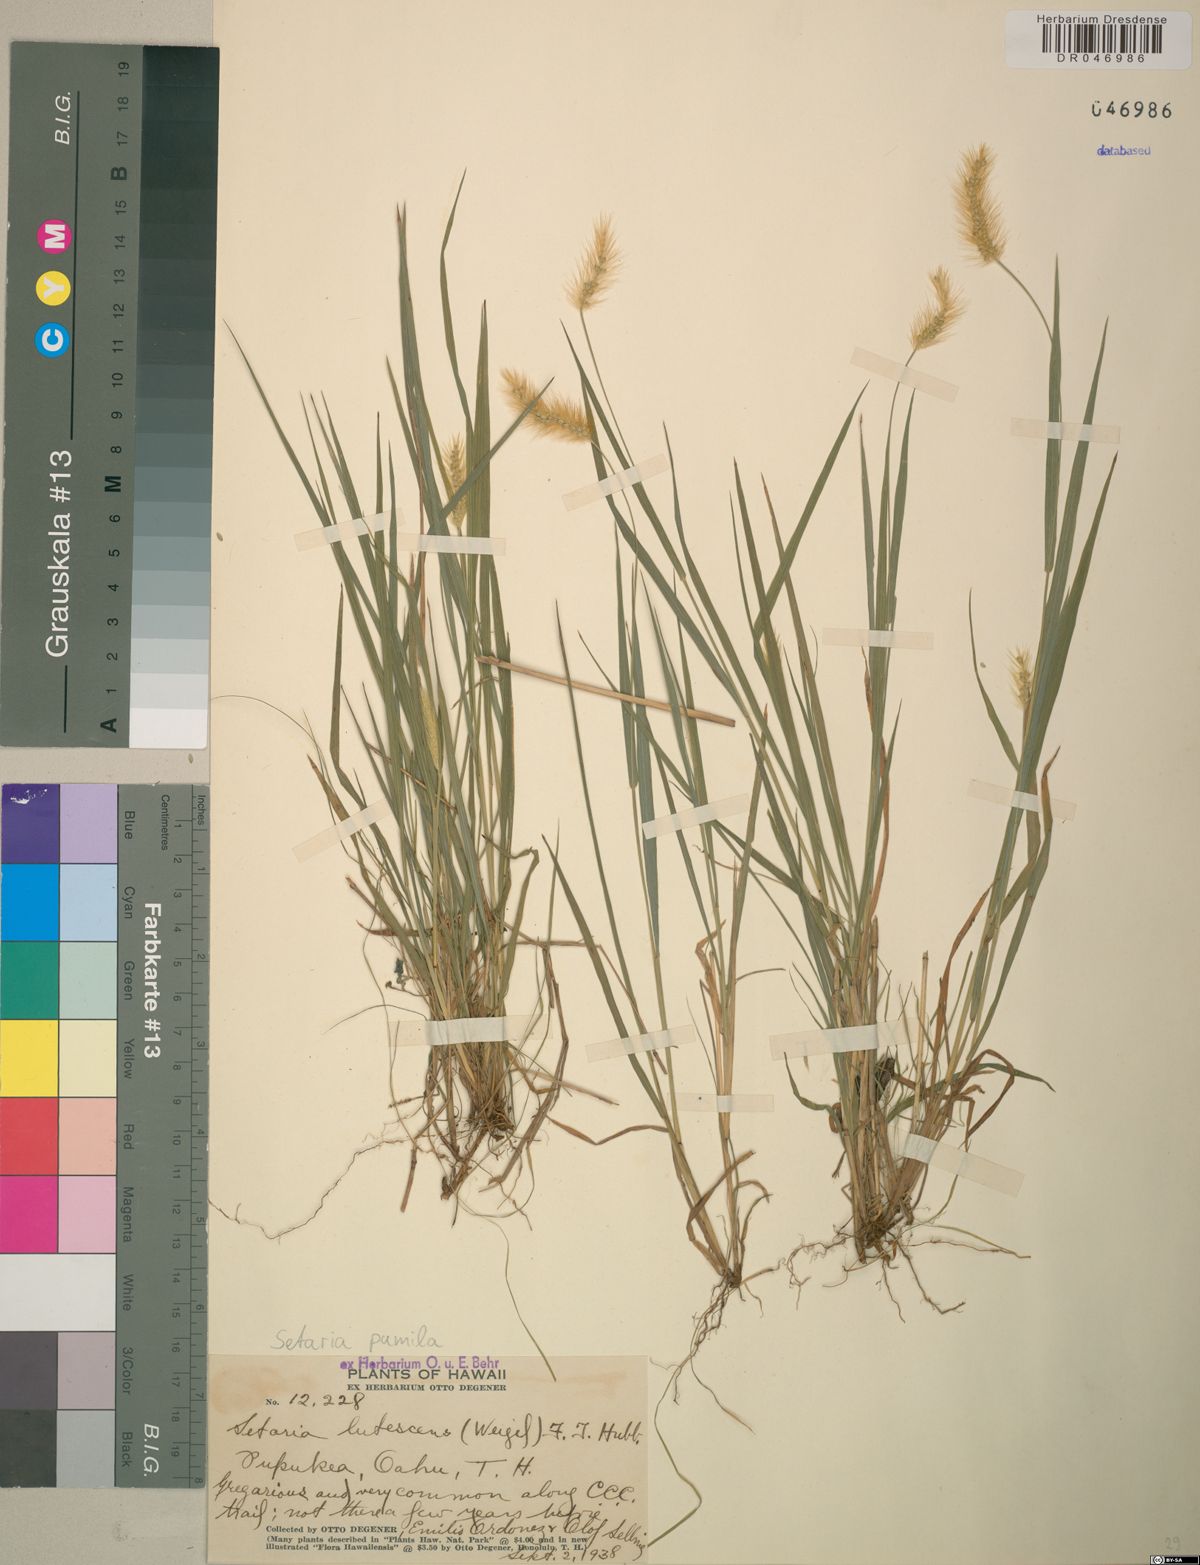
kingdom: Plantae
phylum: Tracheophyta
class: Liliopsida
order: Poales
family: Poaceae
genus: Setaria
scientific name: Setaria pumila
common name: Yellow bristle-grass
